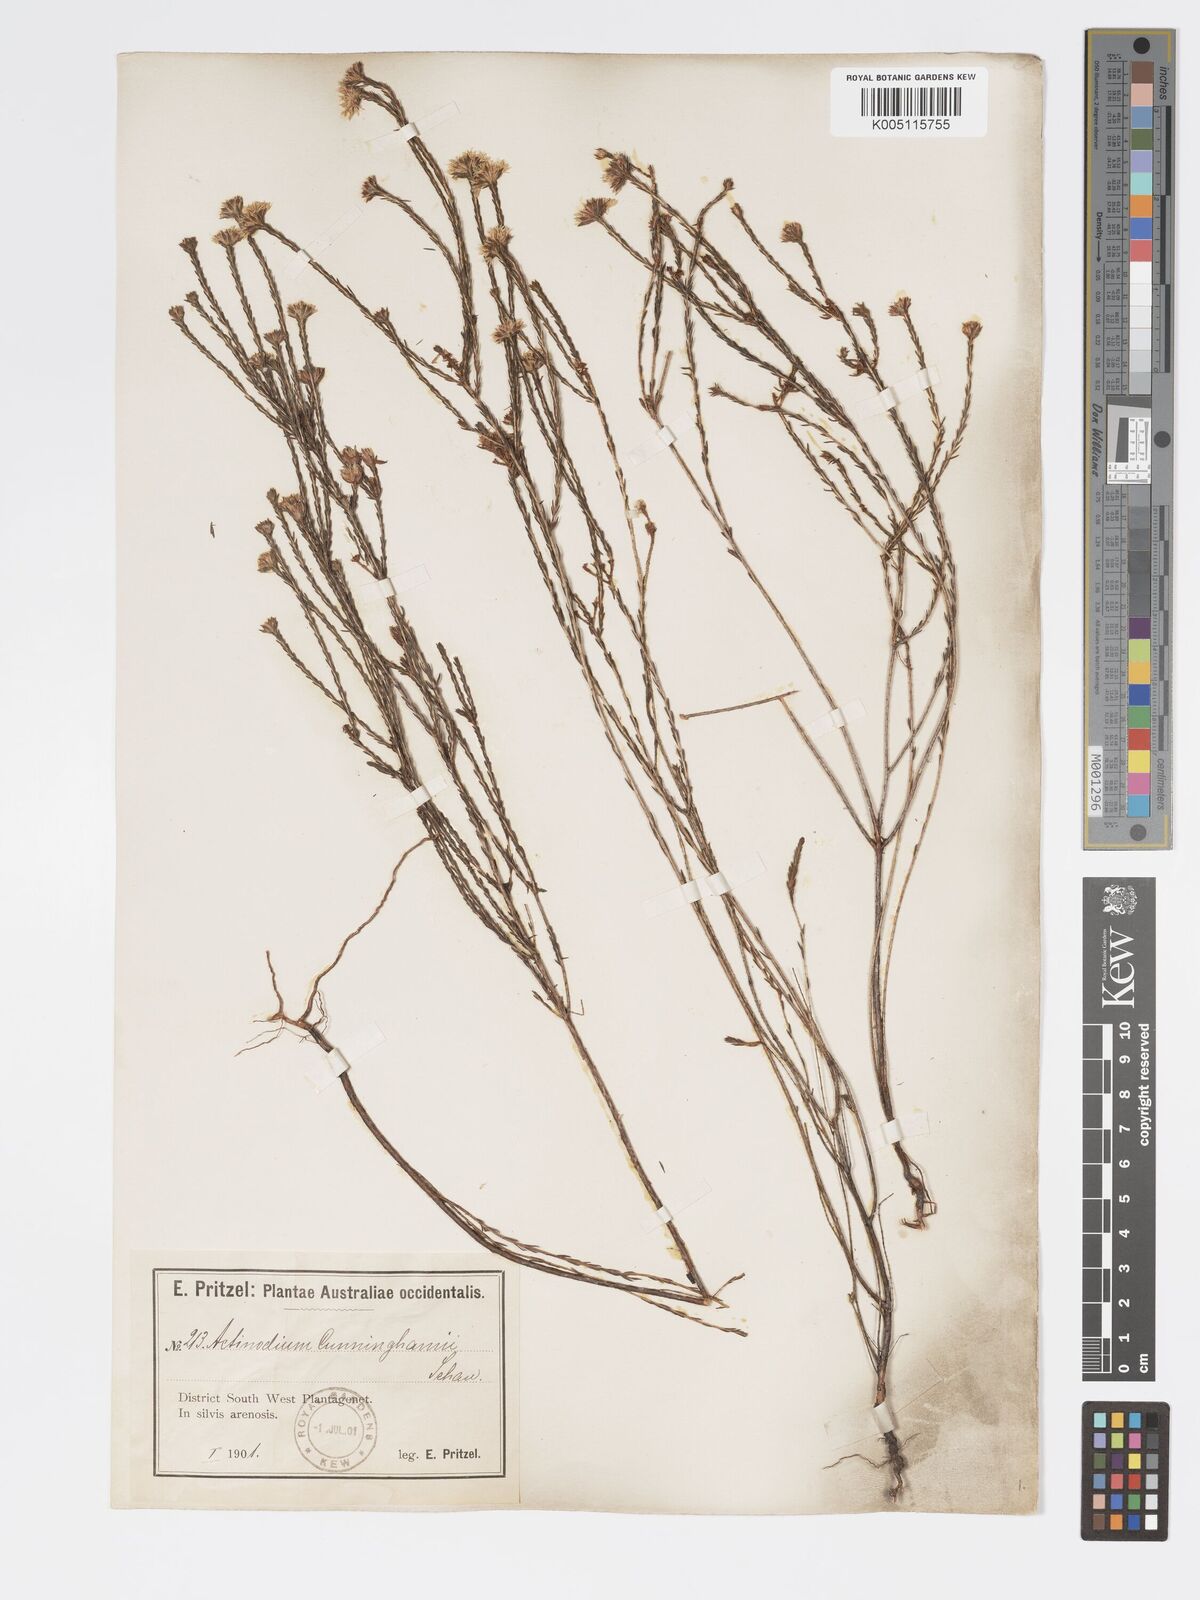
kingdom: Plantae
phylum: Tracheophyta
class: Magnoliopsida
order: Myrtales
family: Myrtaceae
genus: Actinodium
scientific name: Actinodium cunninghamii
